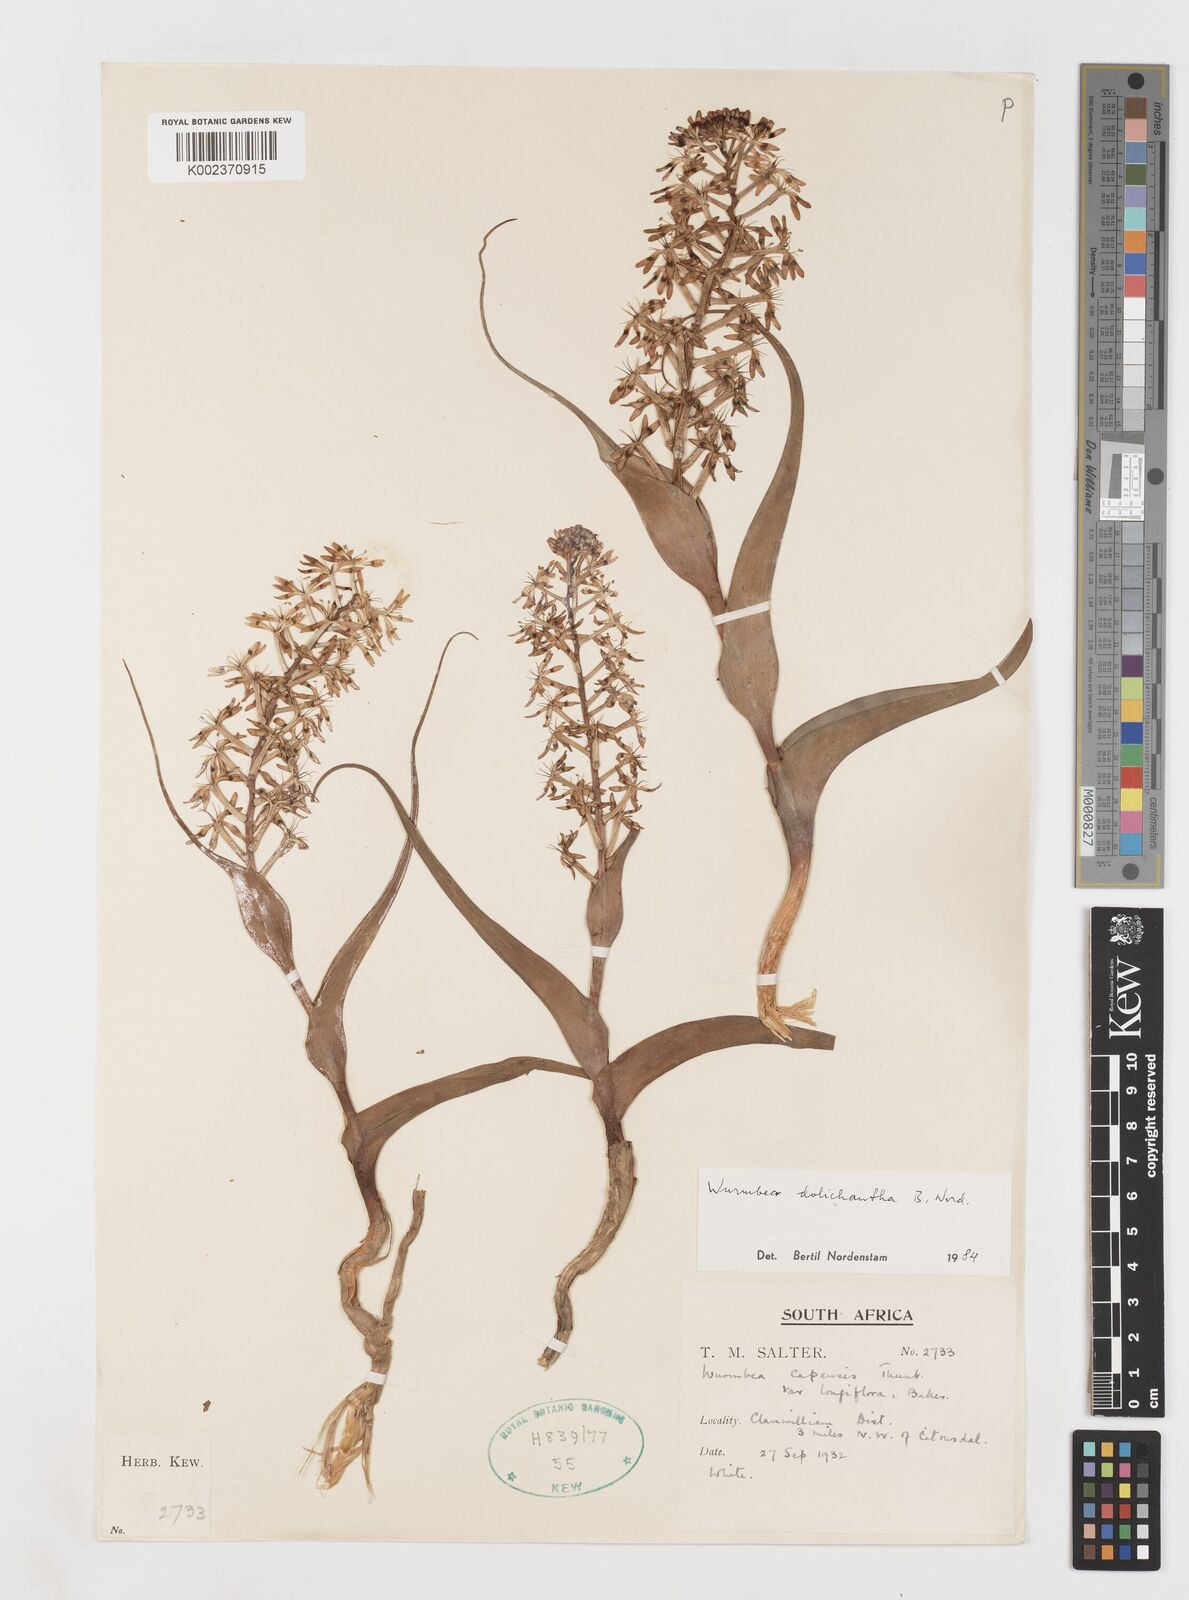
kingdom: Plantae
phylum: Tracheophyta
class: Liliopsida
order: Liliales
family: Colchicaceae
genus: Wurmbea
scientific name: Wurmbea dolichantha
